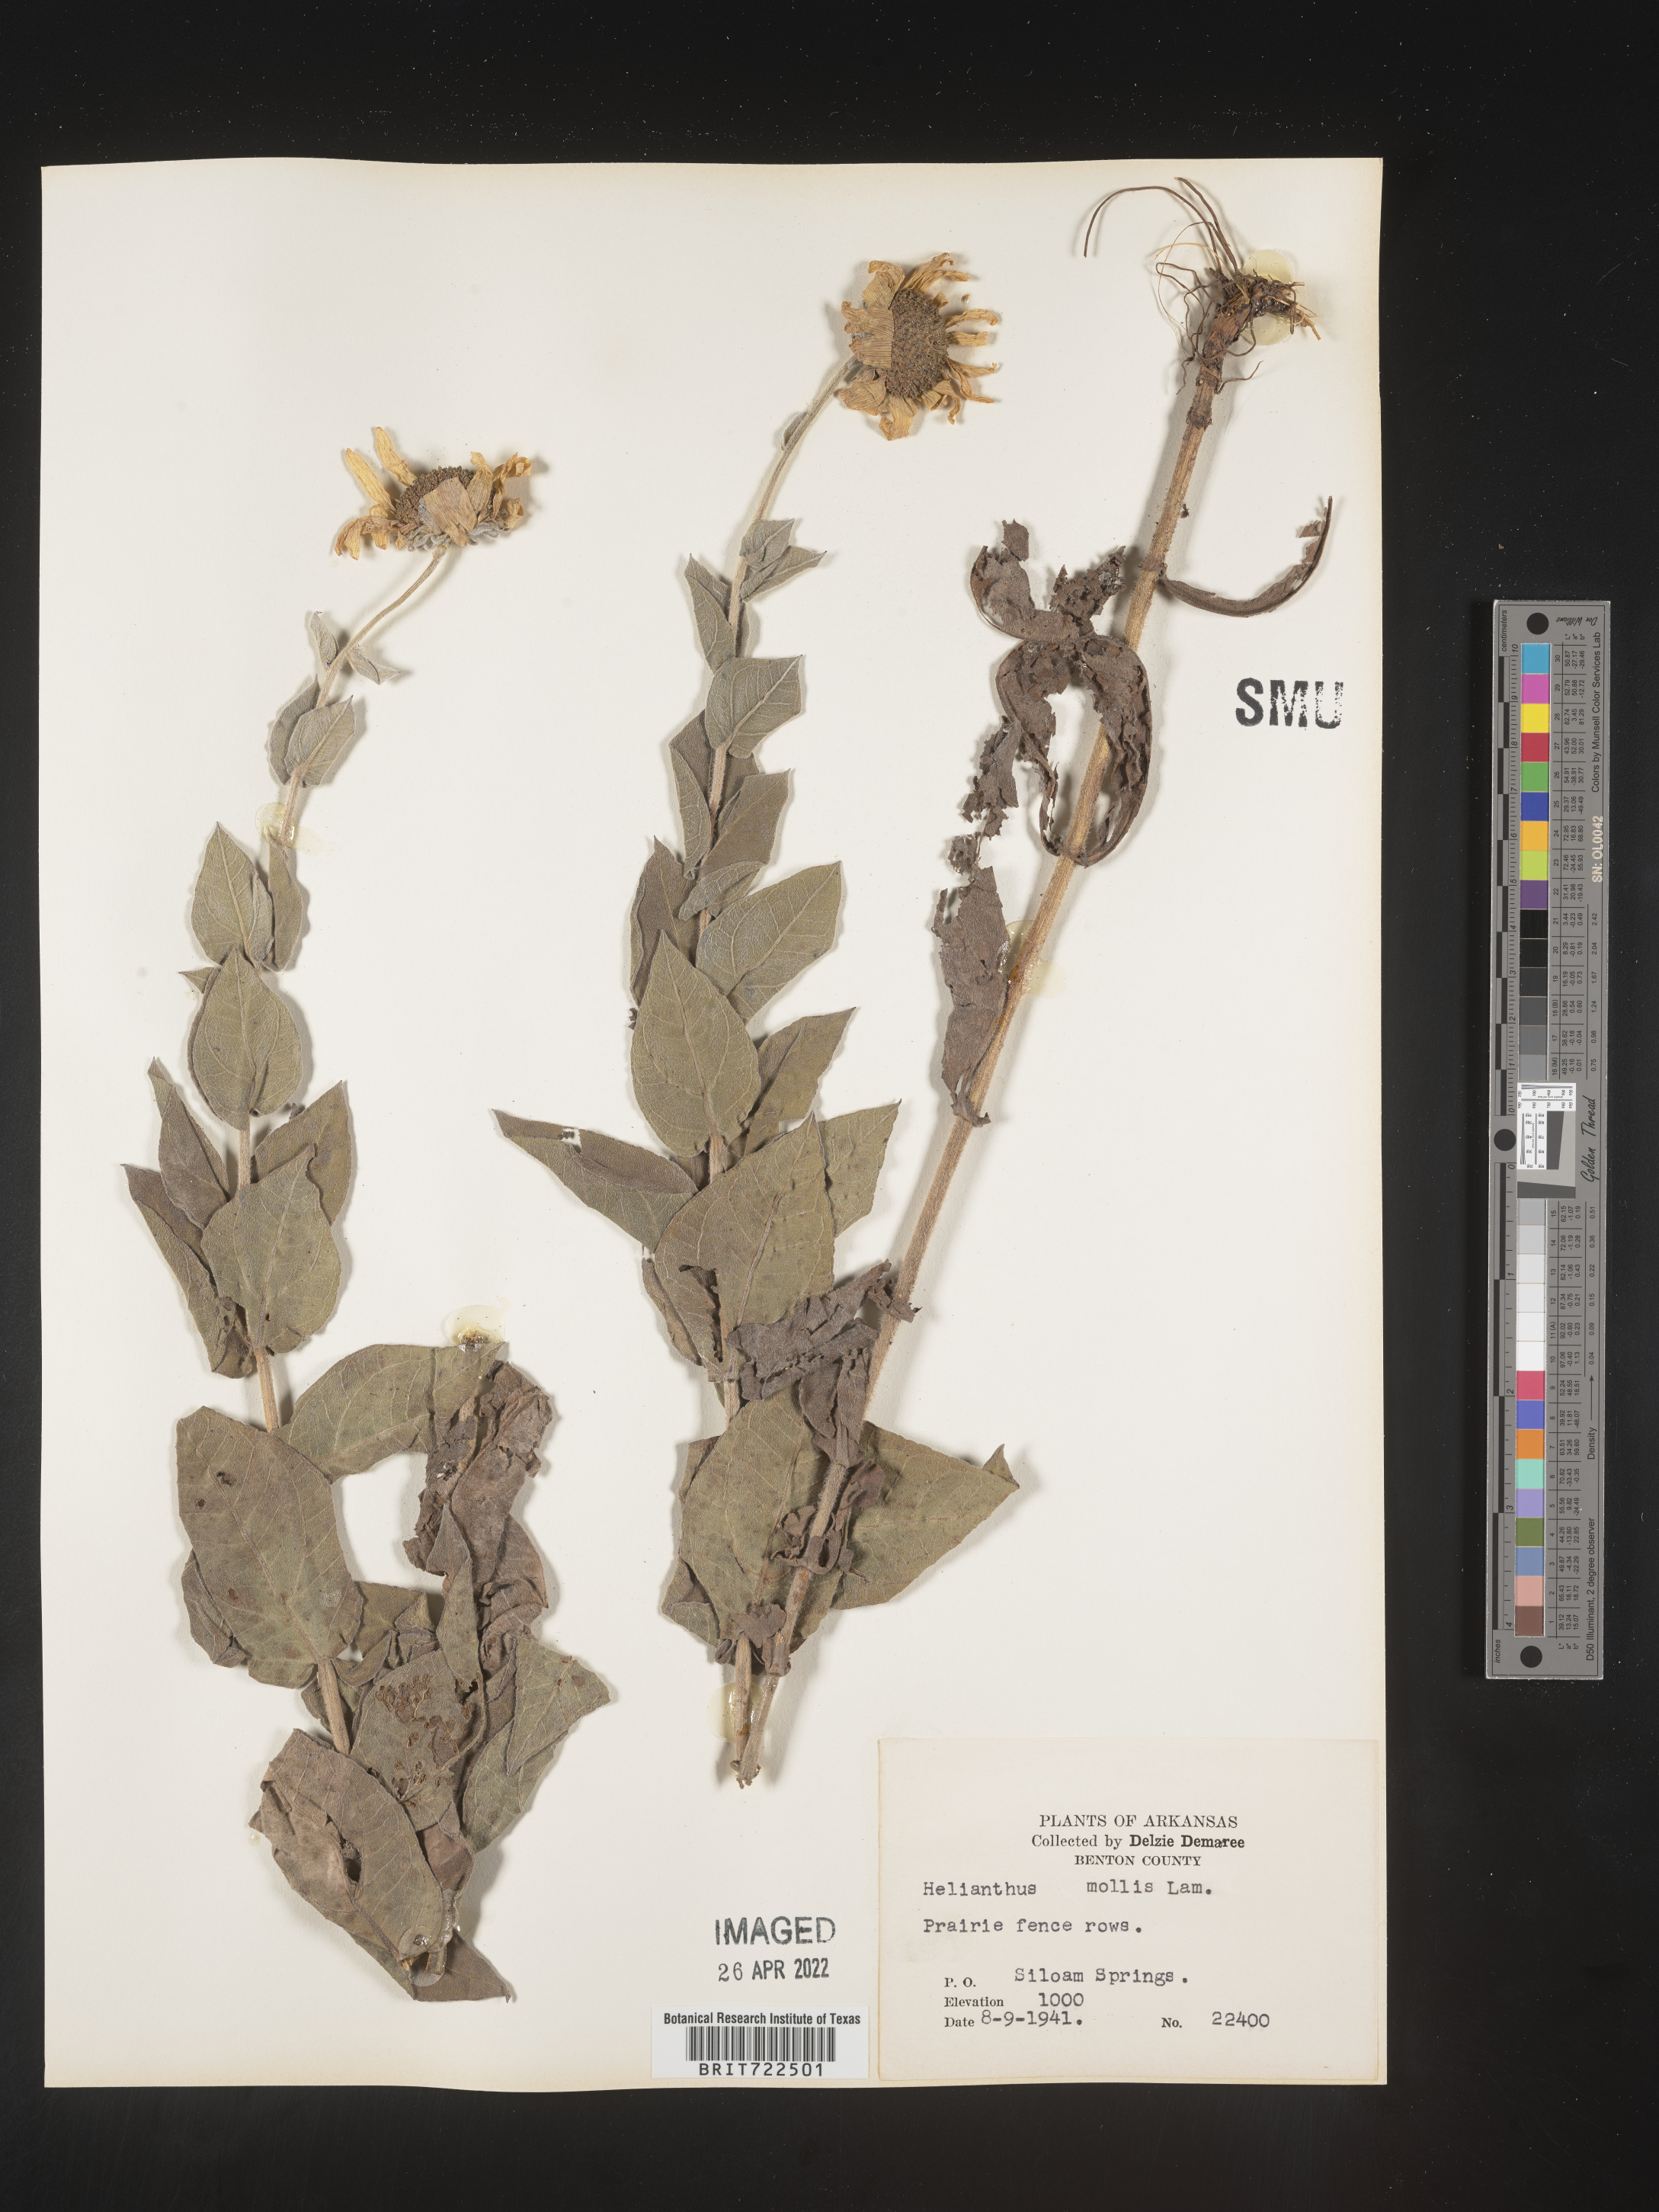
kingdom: Plantae
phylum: Tracheophyta
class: Magnoliopsida
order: Asterales
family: Asteraceae
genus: Helianthus
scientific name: Helianthus mollis
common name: Ashy sunflower
